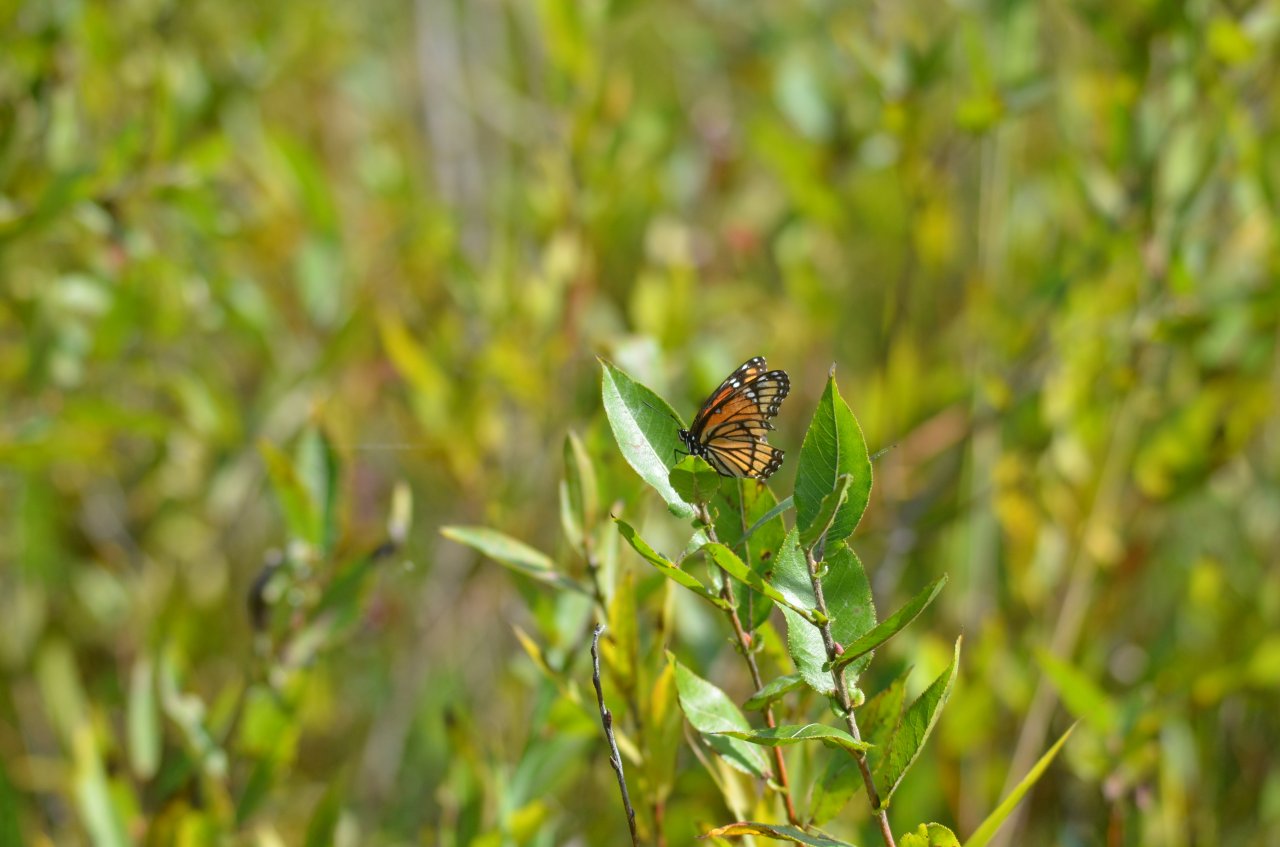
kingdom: Animalia
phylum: Arthropoda
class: Insecta
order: Lepidoptera
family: Nymphalidae
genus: Limenitis
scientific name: Limenitis archippus
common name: Viceroy
